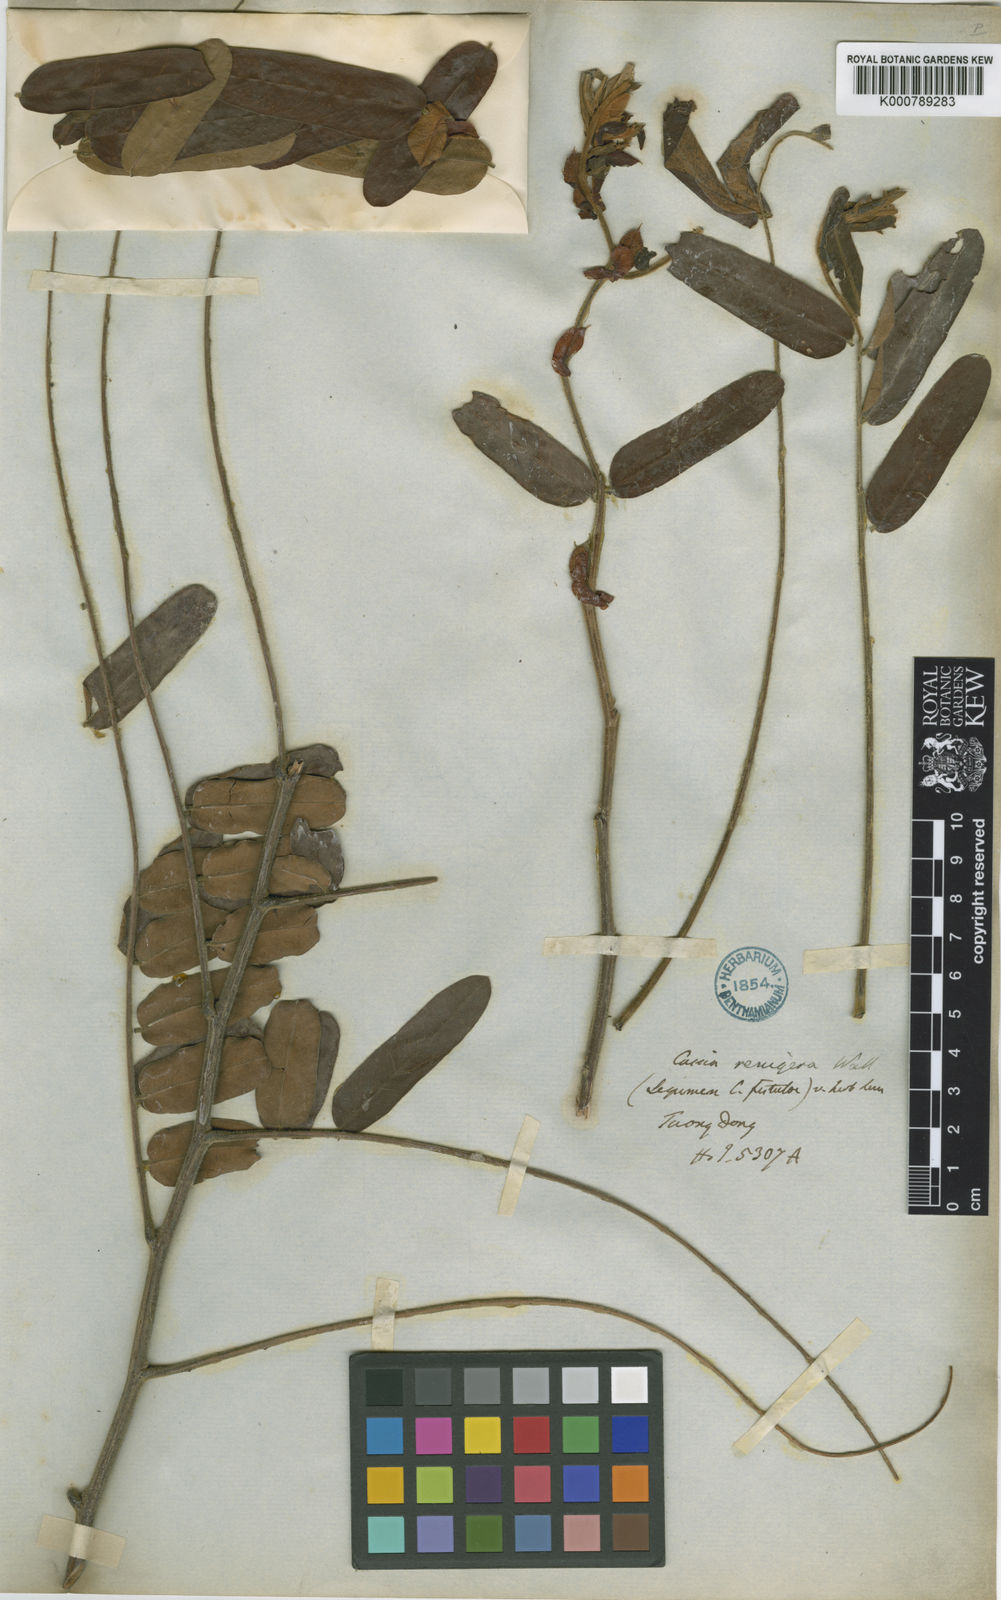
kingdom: Plantae
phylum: Tracheophyta
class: Magnoliopsida
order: Fabales
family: Fabaceae
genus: Cassia
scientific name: Cassia
